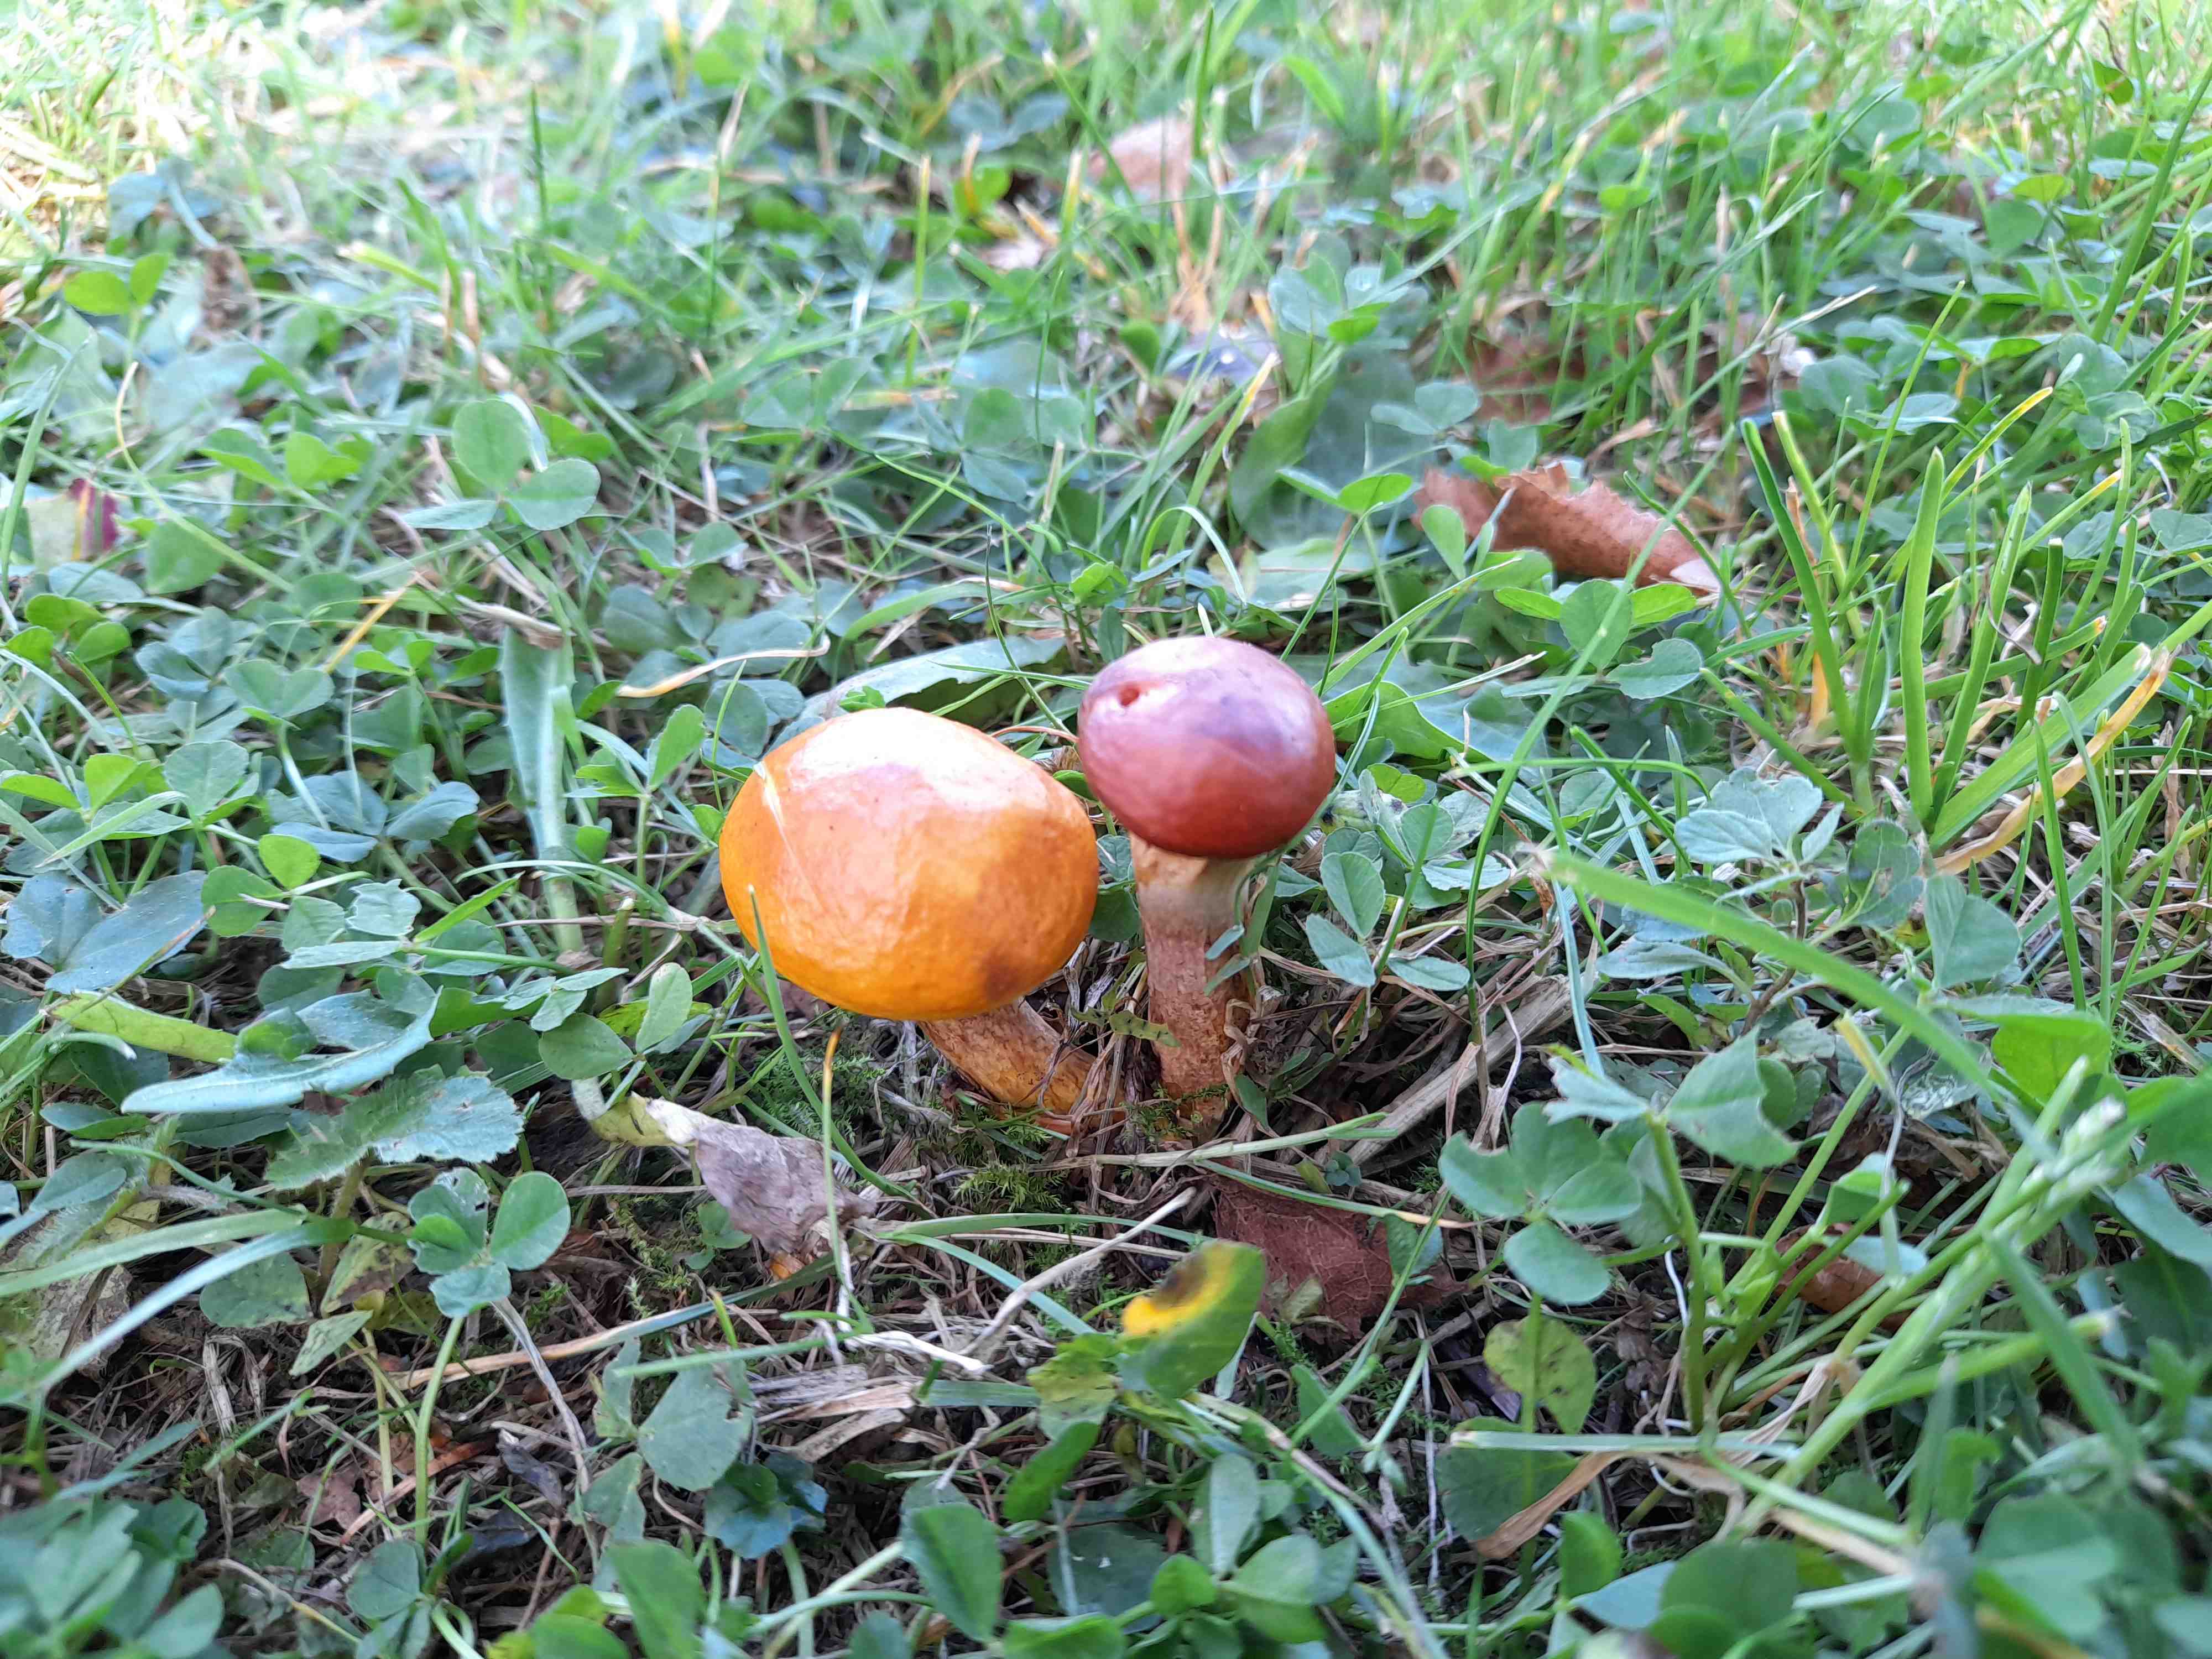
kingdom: Fungi
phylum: Basidiomycota
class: Agaricomycetes
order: Boletales
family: Suillaceae
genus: Suillus
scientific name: Suillus grevillei
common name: lærke-slimrørhat
